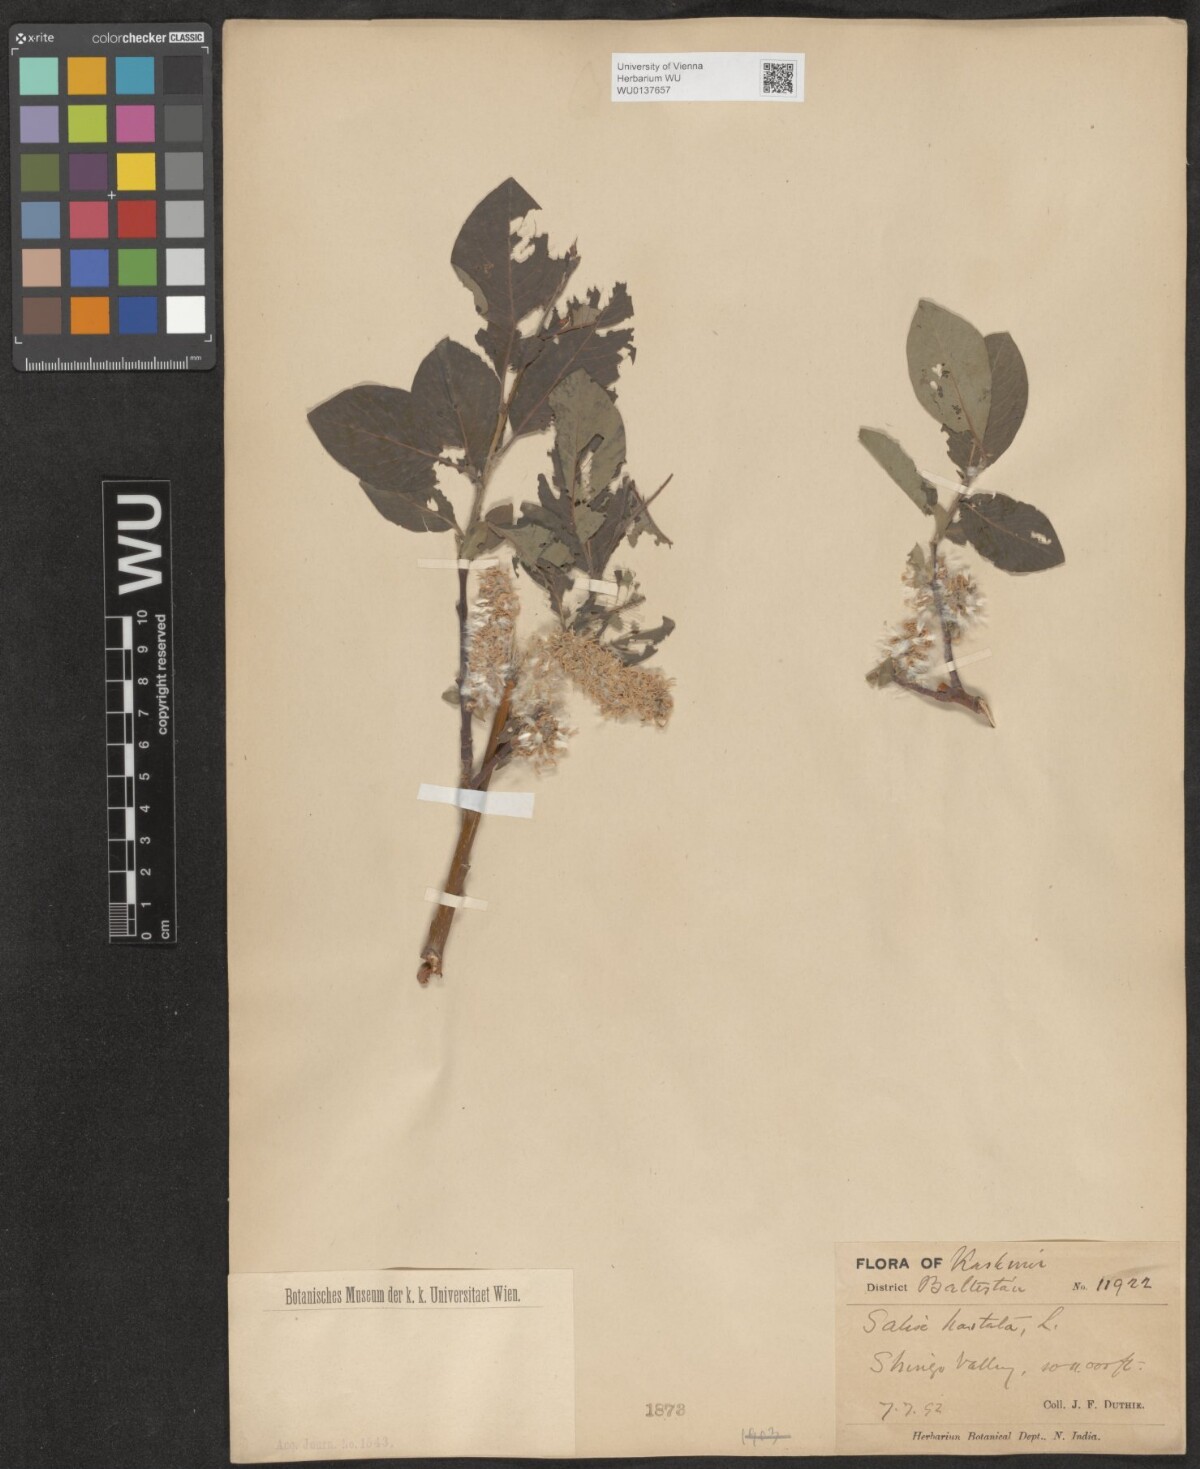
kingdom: Plantae
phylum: Tracheophyta
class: Magnoliopsida
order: Malpighiales
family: Salicaceae
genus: Salix
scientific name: Salix hastata
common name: Halberd willow
